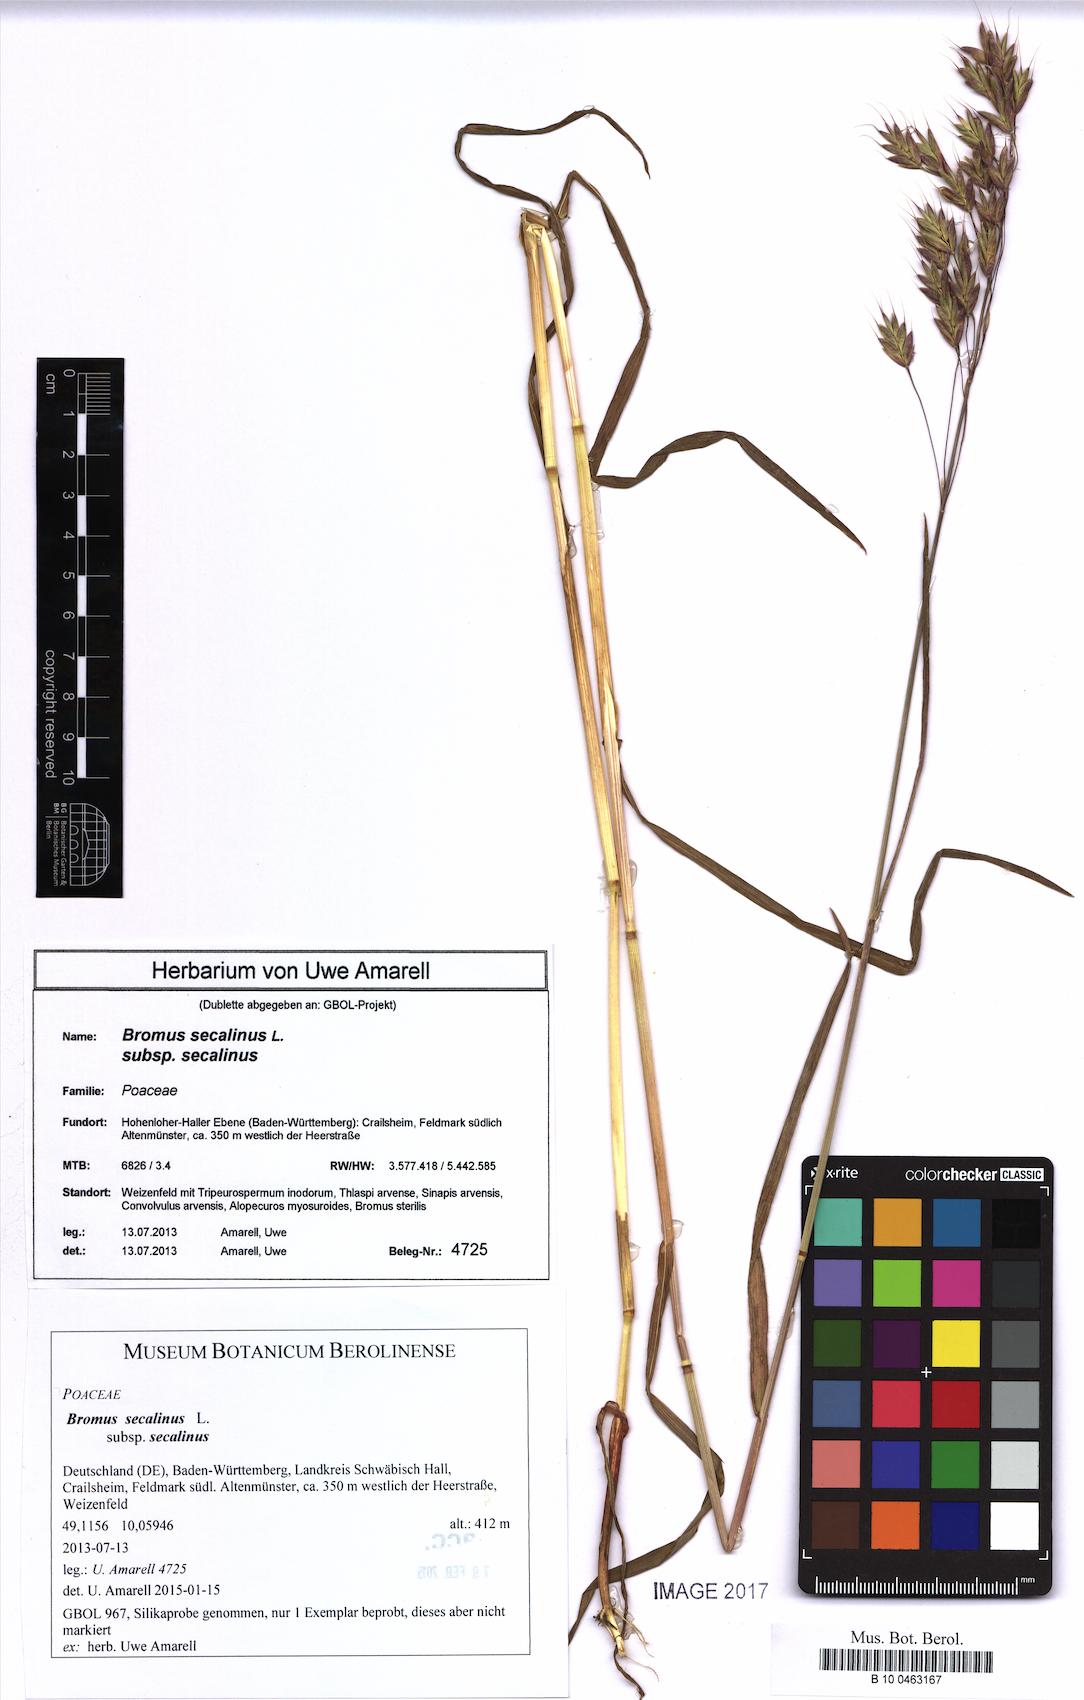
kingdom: Plantae
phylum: Tracheophyta
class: Liliopsida
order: Poales
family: Poaceae
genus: Bromus
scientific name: Bromus secalinus
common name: Rye brome
